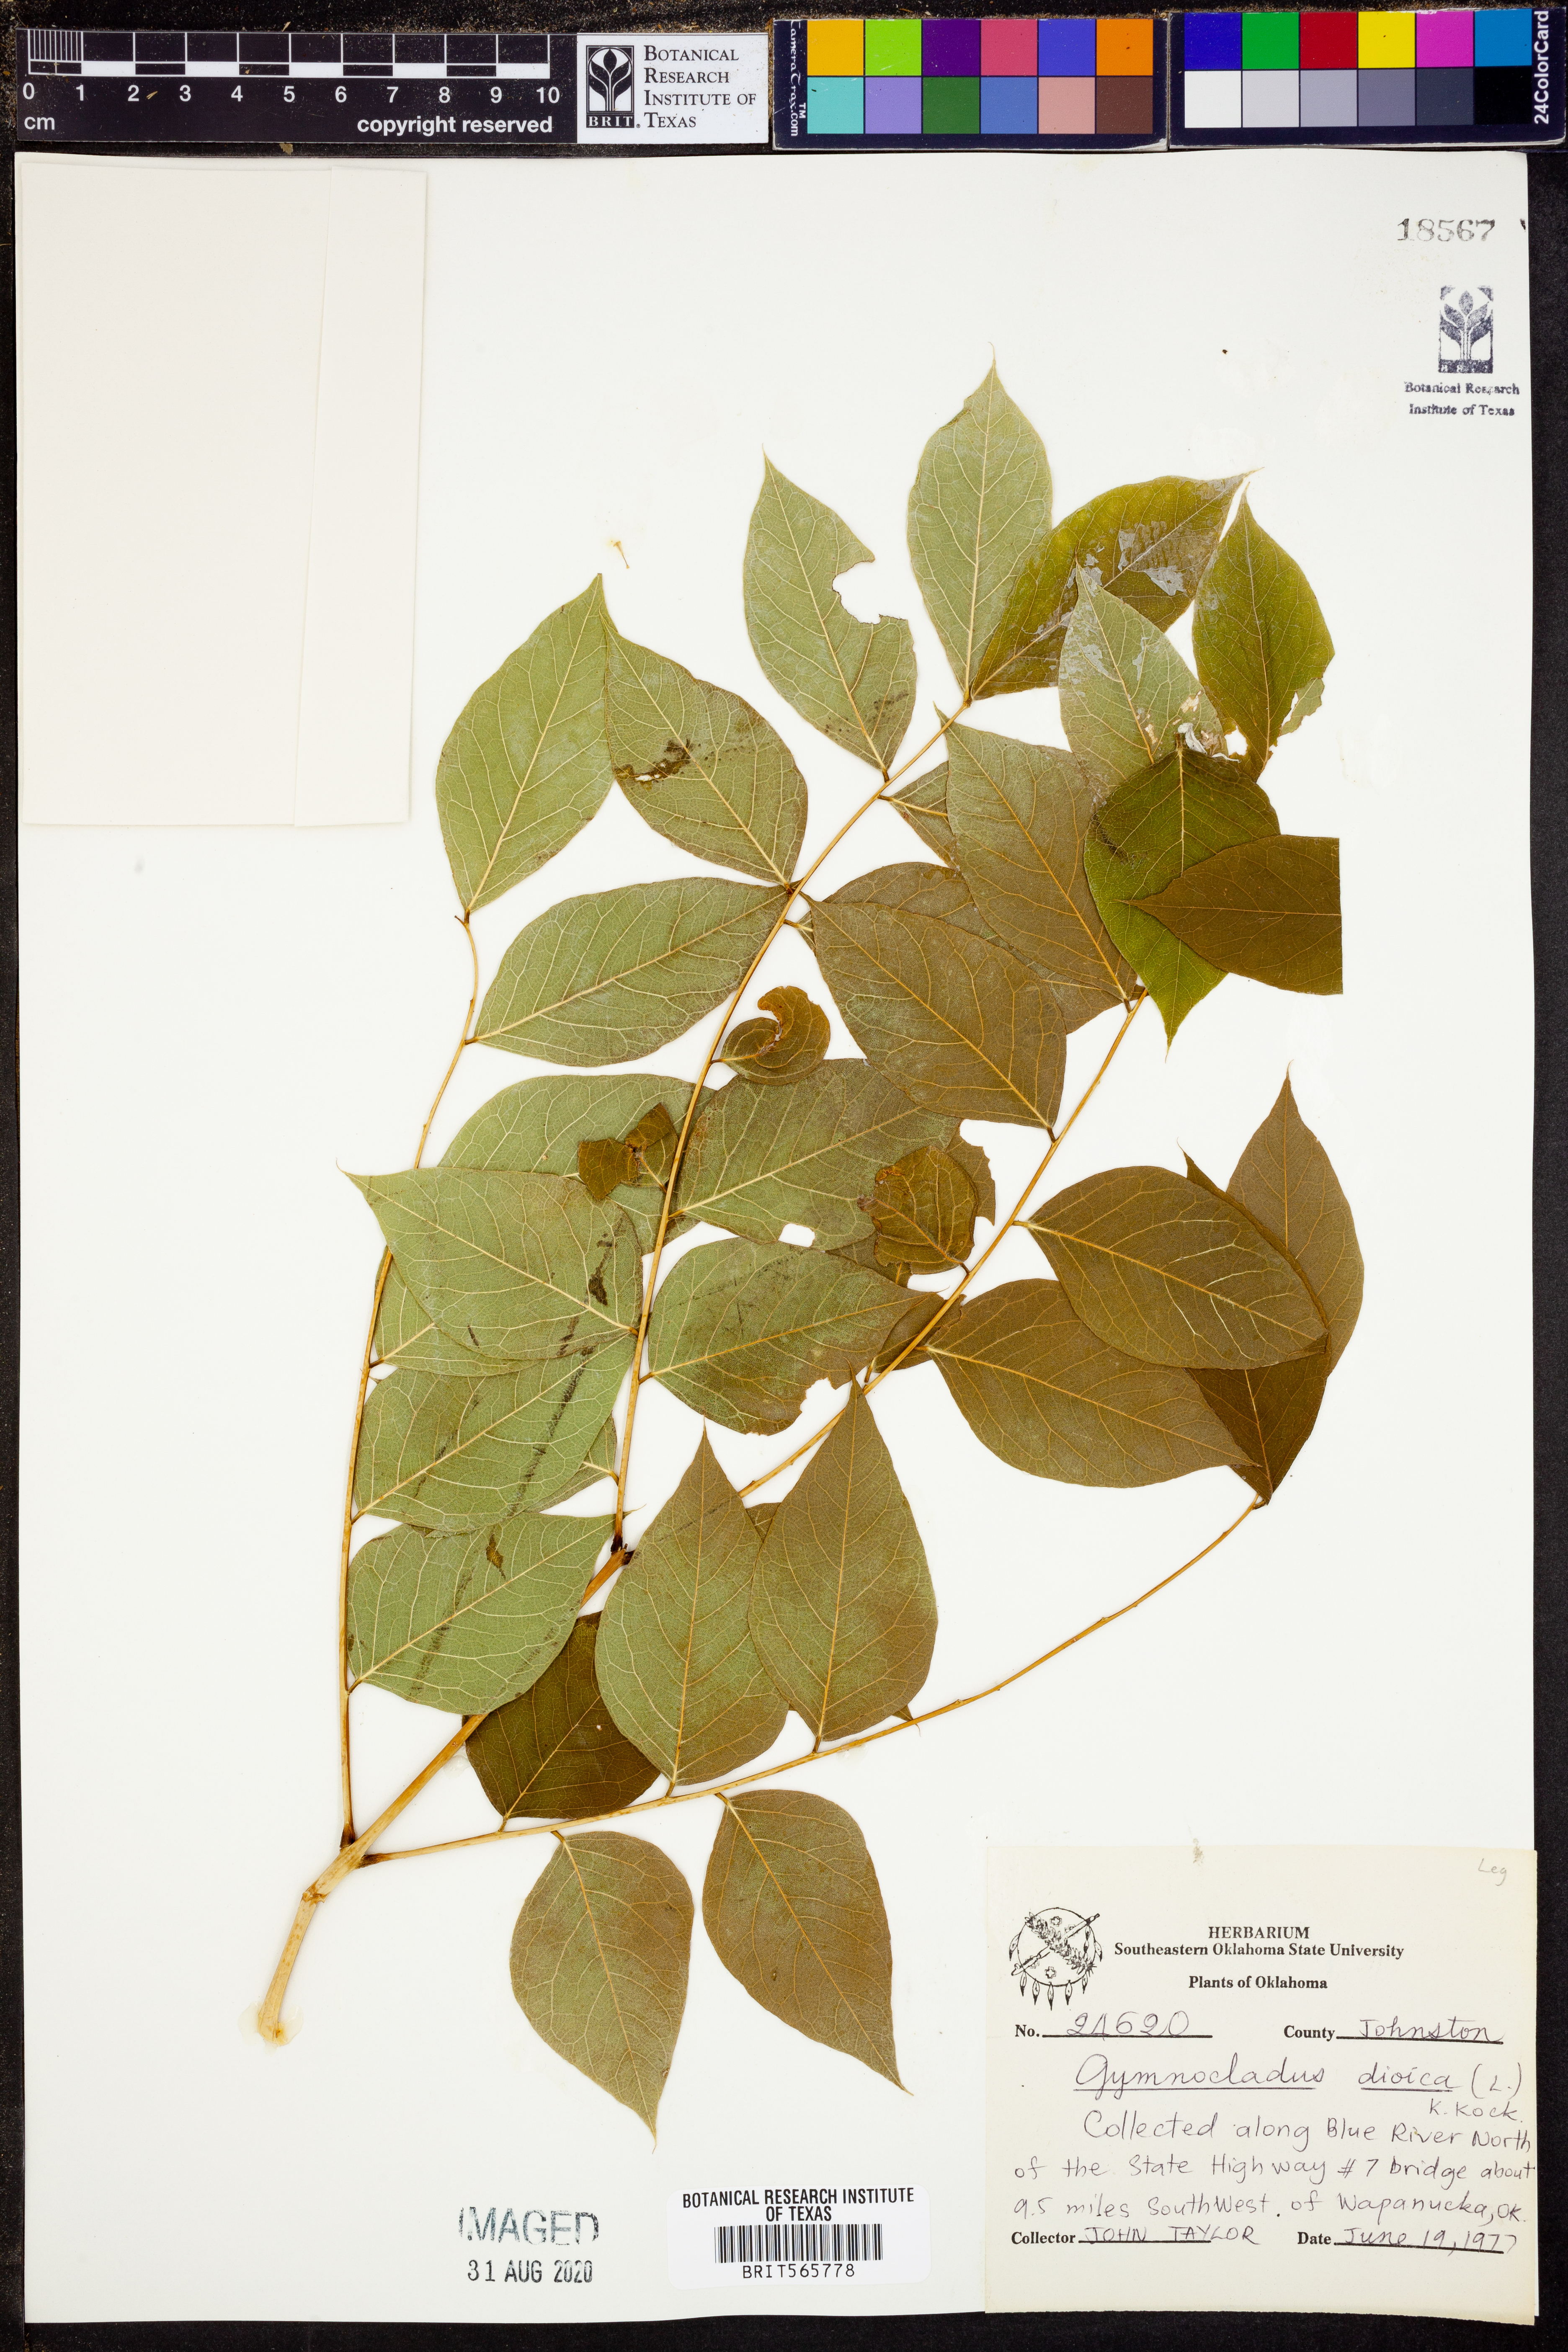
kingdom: Plantae
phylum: Tracheophyta
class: Magnoliopsida
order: Fabales
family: Fabaceae
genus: Gymnocladus
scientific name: Gymnocladus dioicus
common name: Kentucky coffee-tree
